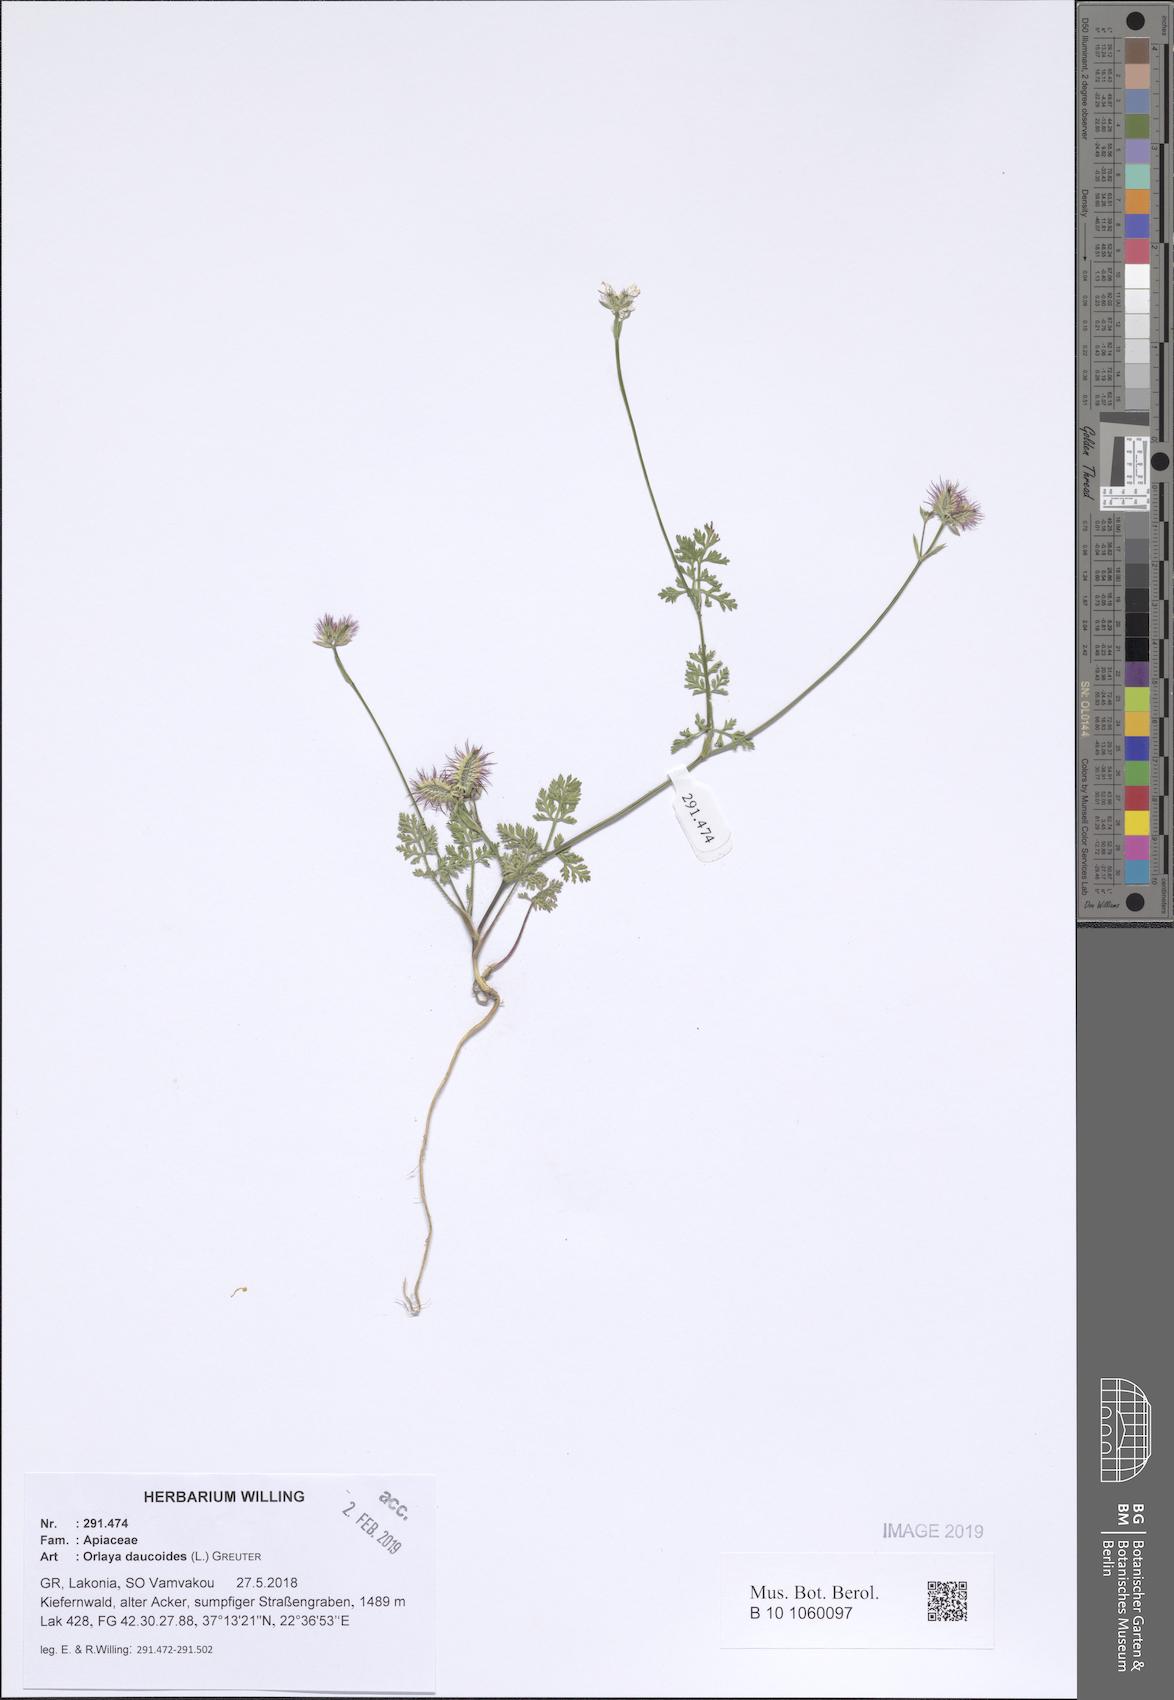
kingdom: Plantae
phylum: Tracheophyta
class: Magnoliopsida
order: Apiales
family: Apiaceae
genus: Orlaya
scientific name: Orlaya daucoides
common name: Flat-fruit orlaya
